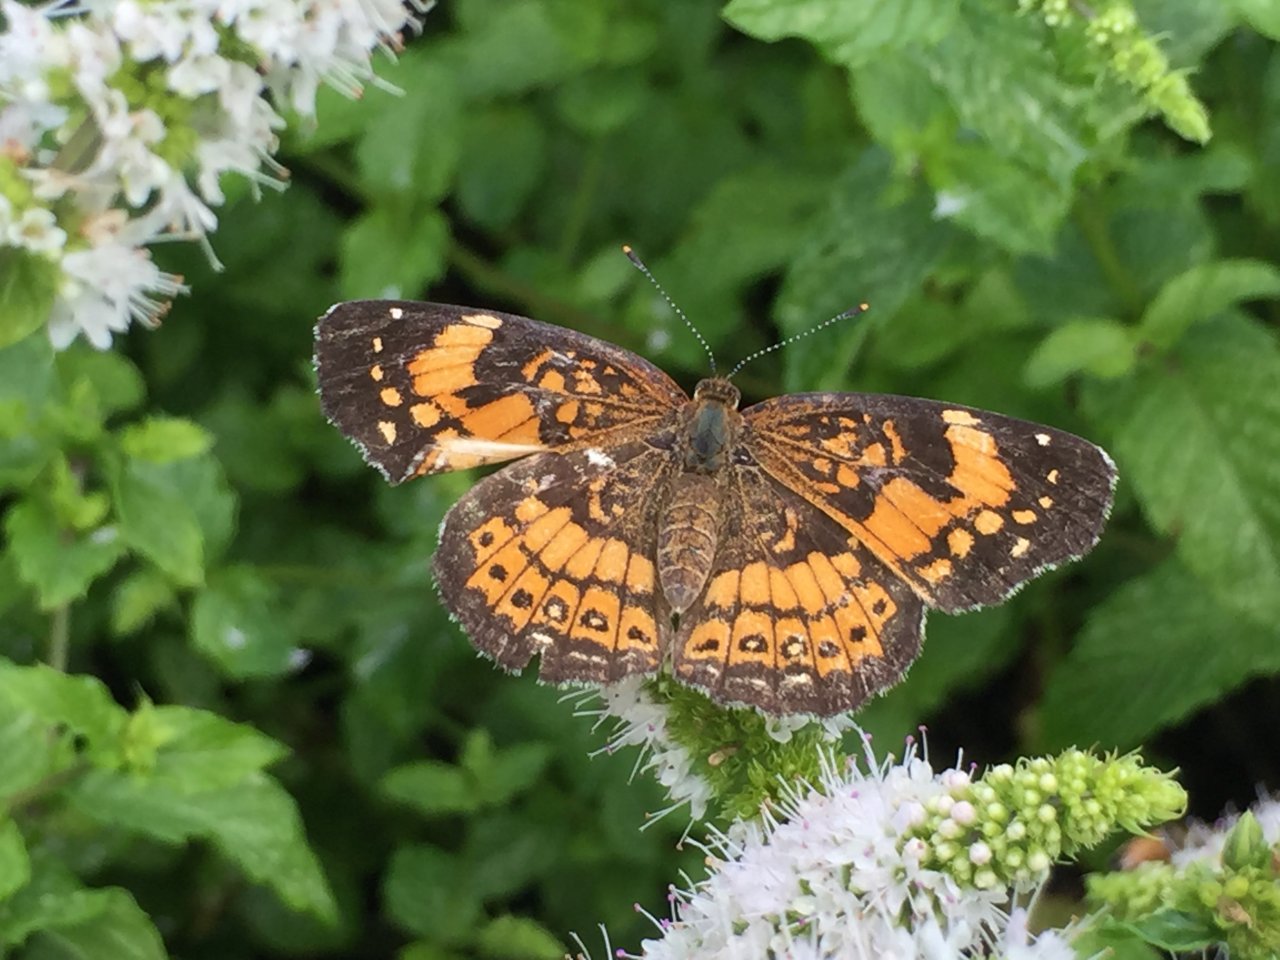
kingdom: Animalia
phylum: Arthropoda
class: Insecta
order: Lepidoptera
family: Nymphalidae
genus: Chlosyne
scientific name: Chlosyne nycteis
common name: Silvery Checkerspot
